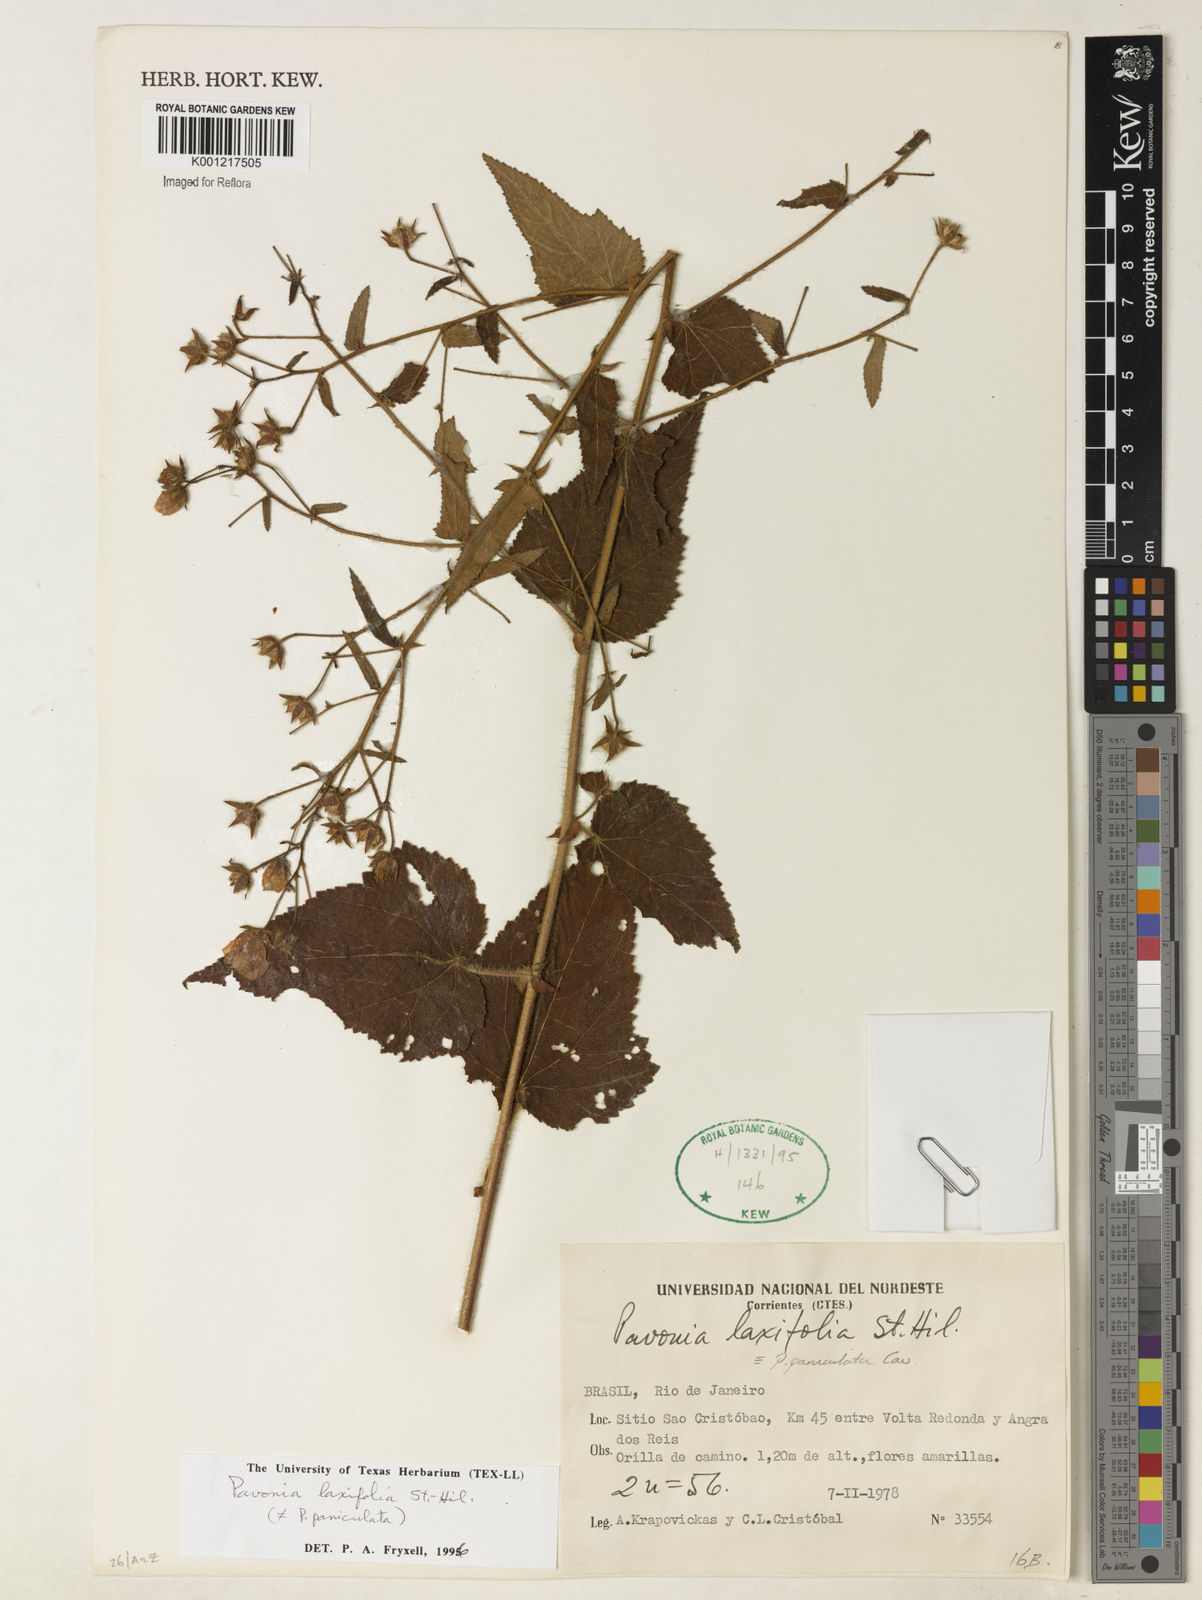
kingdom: Plantae
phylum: Tracheophyta
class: Magnoliopsida
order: Malvales
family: Malvaceae
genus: Pavonia
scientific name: Pavonia laxifolia
